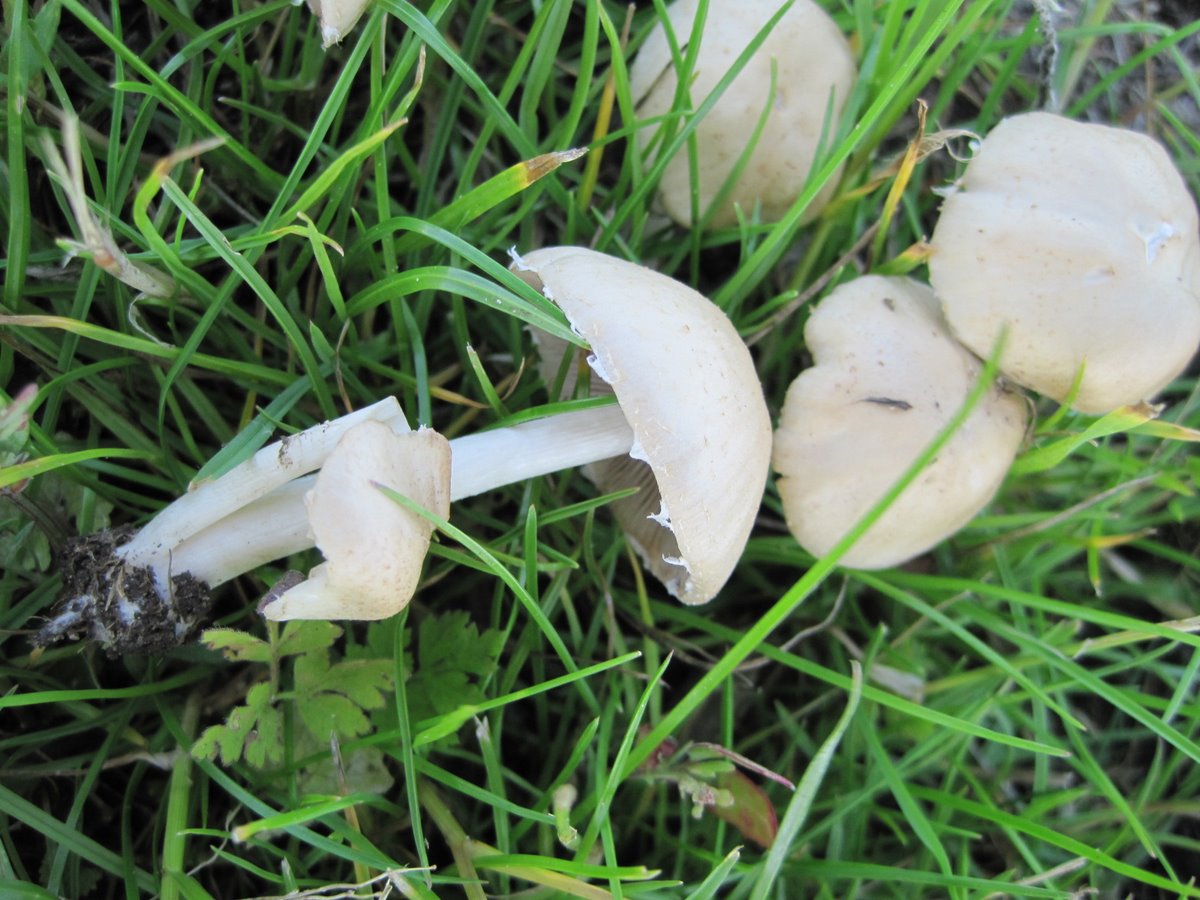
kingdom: Fungi
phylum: Basidiomycota
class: Agaricomycetes
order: Agaricales
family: Psathyrellaceae
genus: Candolleomyces
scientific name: Candolleomyces candolleanus
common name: Candolles mørkhat
